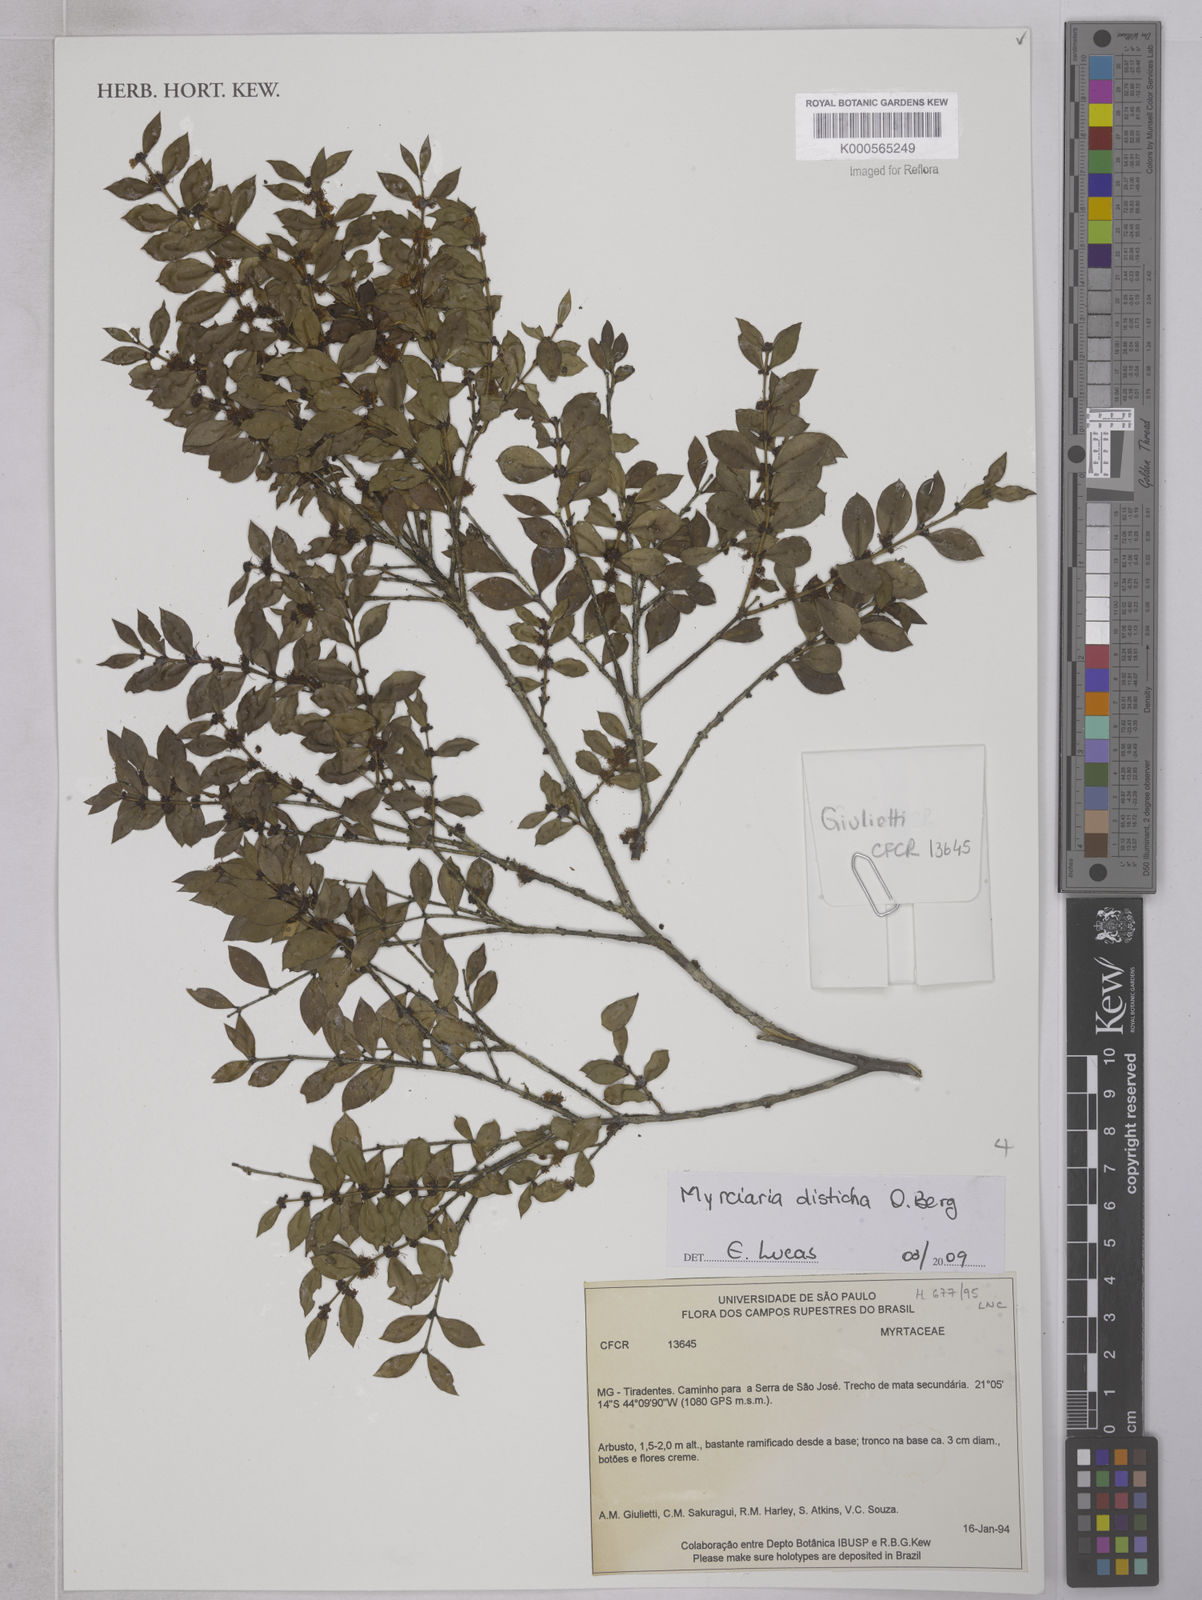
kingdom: Plantae
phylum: Tracheophyta
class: Magnoliopsida
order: Myrtales
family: Myrtaceae
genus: Myrciaria
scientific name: Myrciaria disticha
